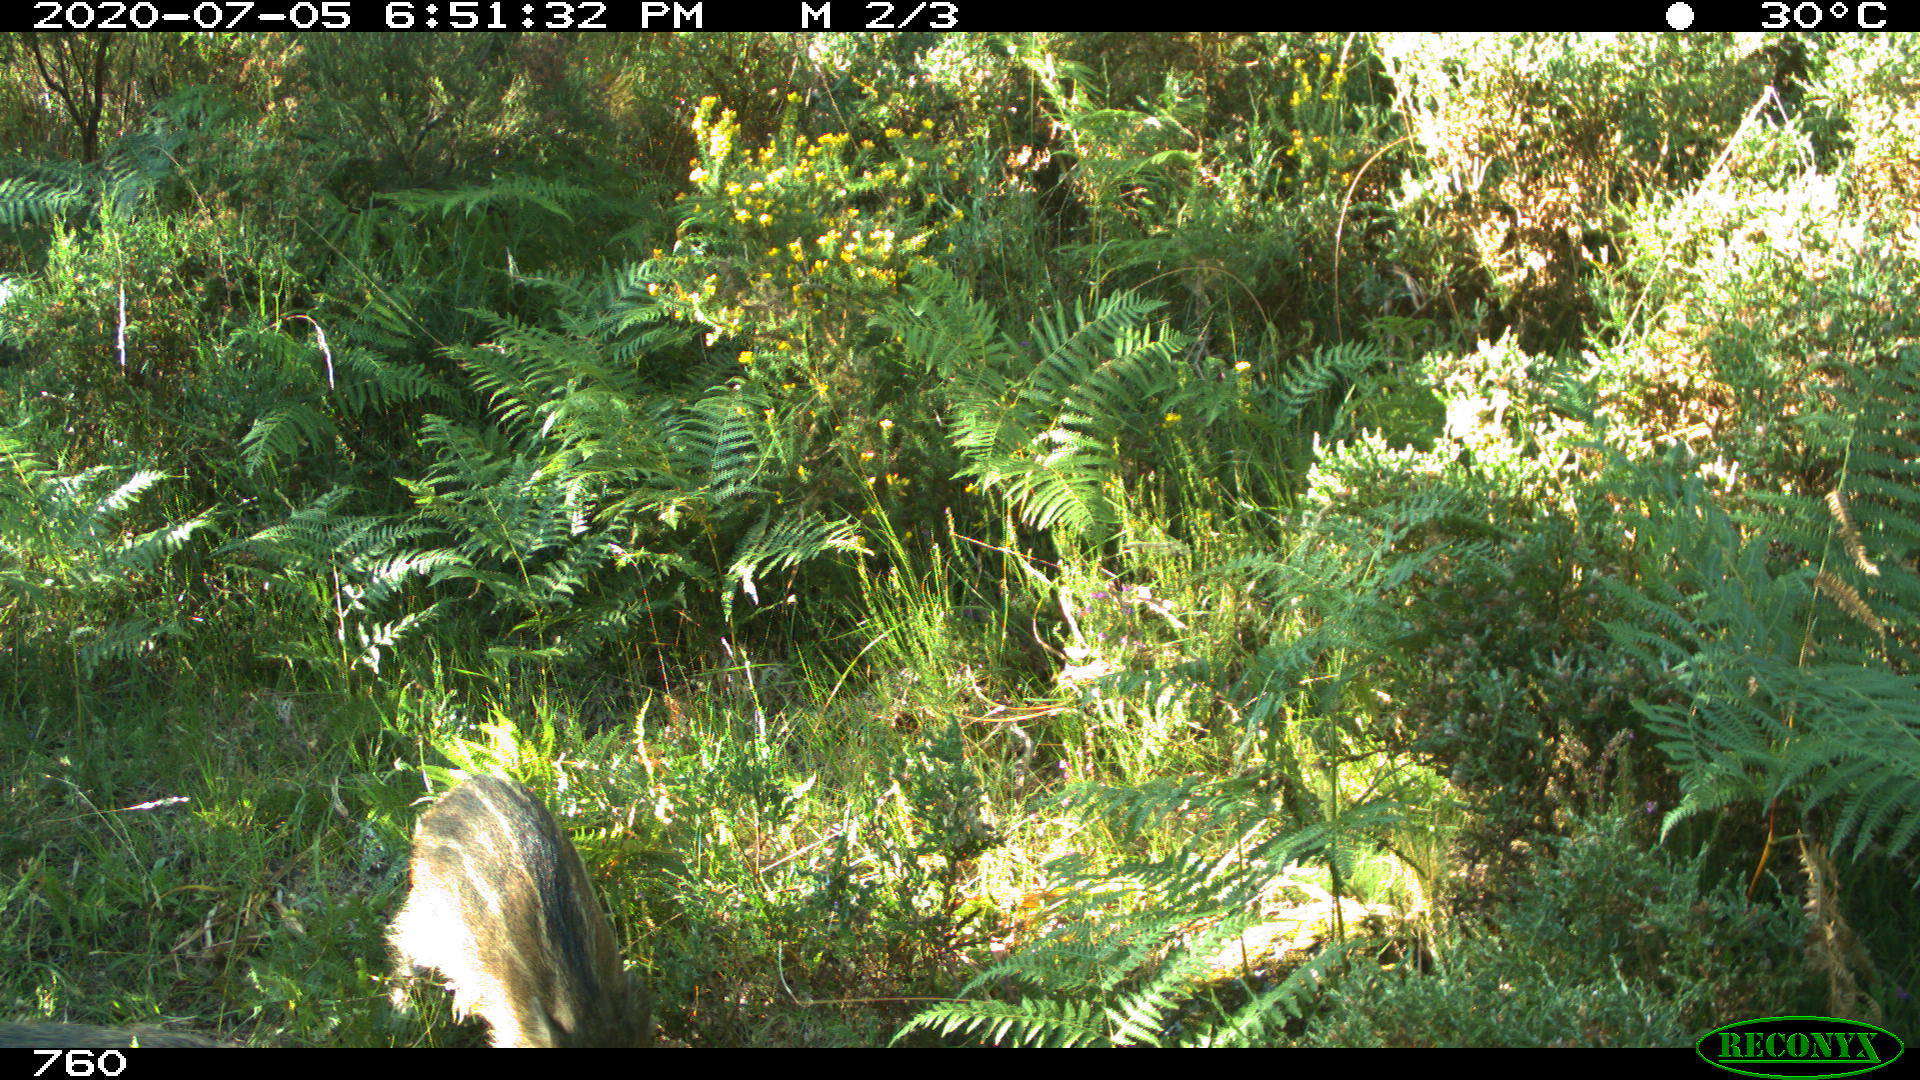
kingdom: Animalia
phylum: Chordata
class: Mammalia
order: Artiodactyla
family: Suidae
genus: Sus
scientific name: Sus scrofa
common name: Wild boar
